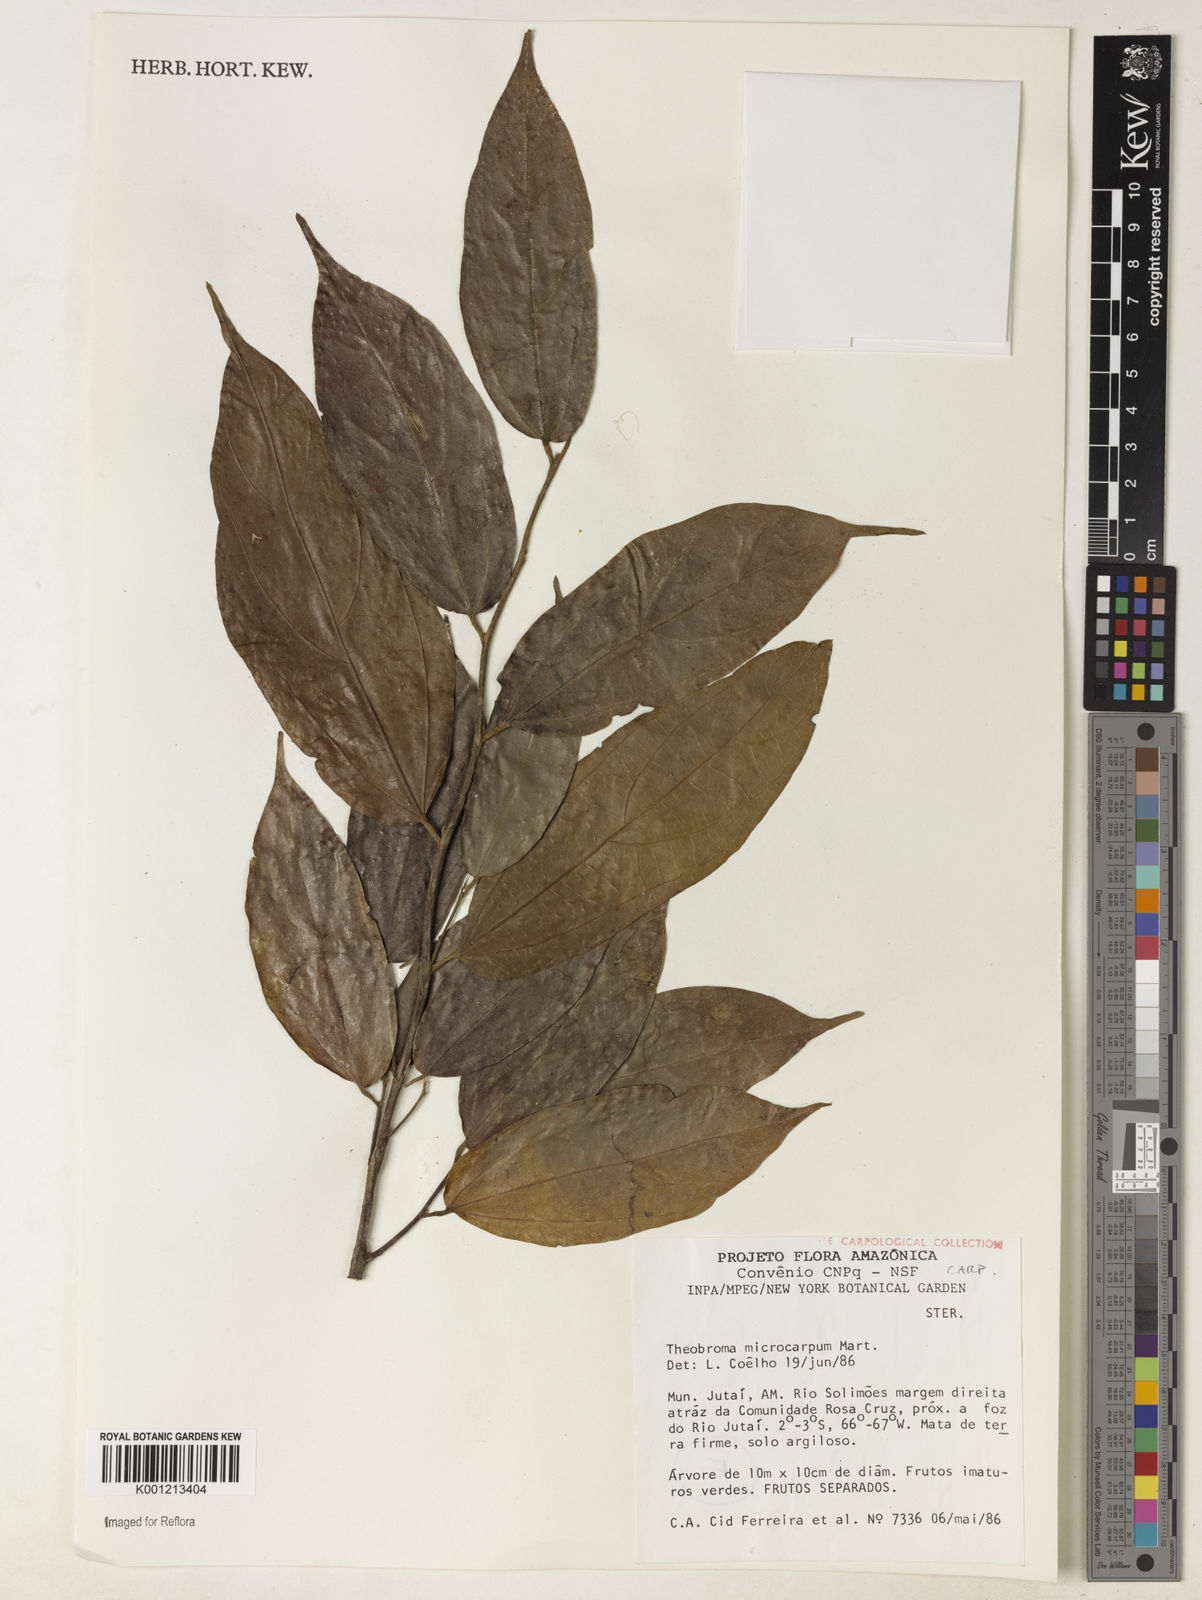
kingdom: Plantae
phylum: Tracheophyta
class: Magnoliopsida
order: Malvales
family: Malvaceae
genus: Theobroma
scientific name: Theobroma microcarpum
